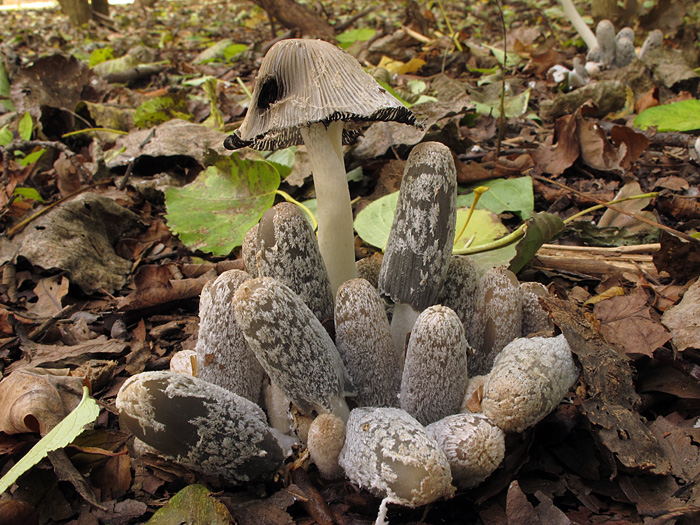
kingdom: Fungi
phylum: Basidiomycota
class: Agaricomycetes
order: Agaricales
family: Psathyrellaceae
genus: Coprinopsis
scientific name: Coprinopsis lagopus
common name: dunstokket blækhat
